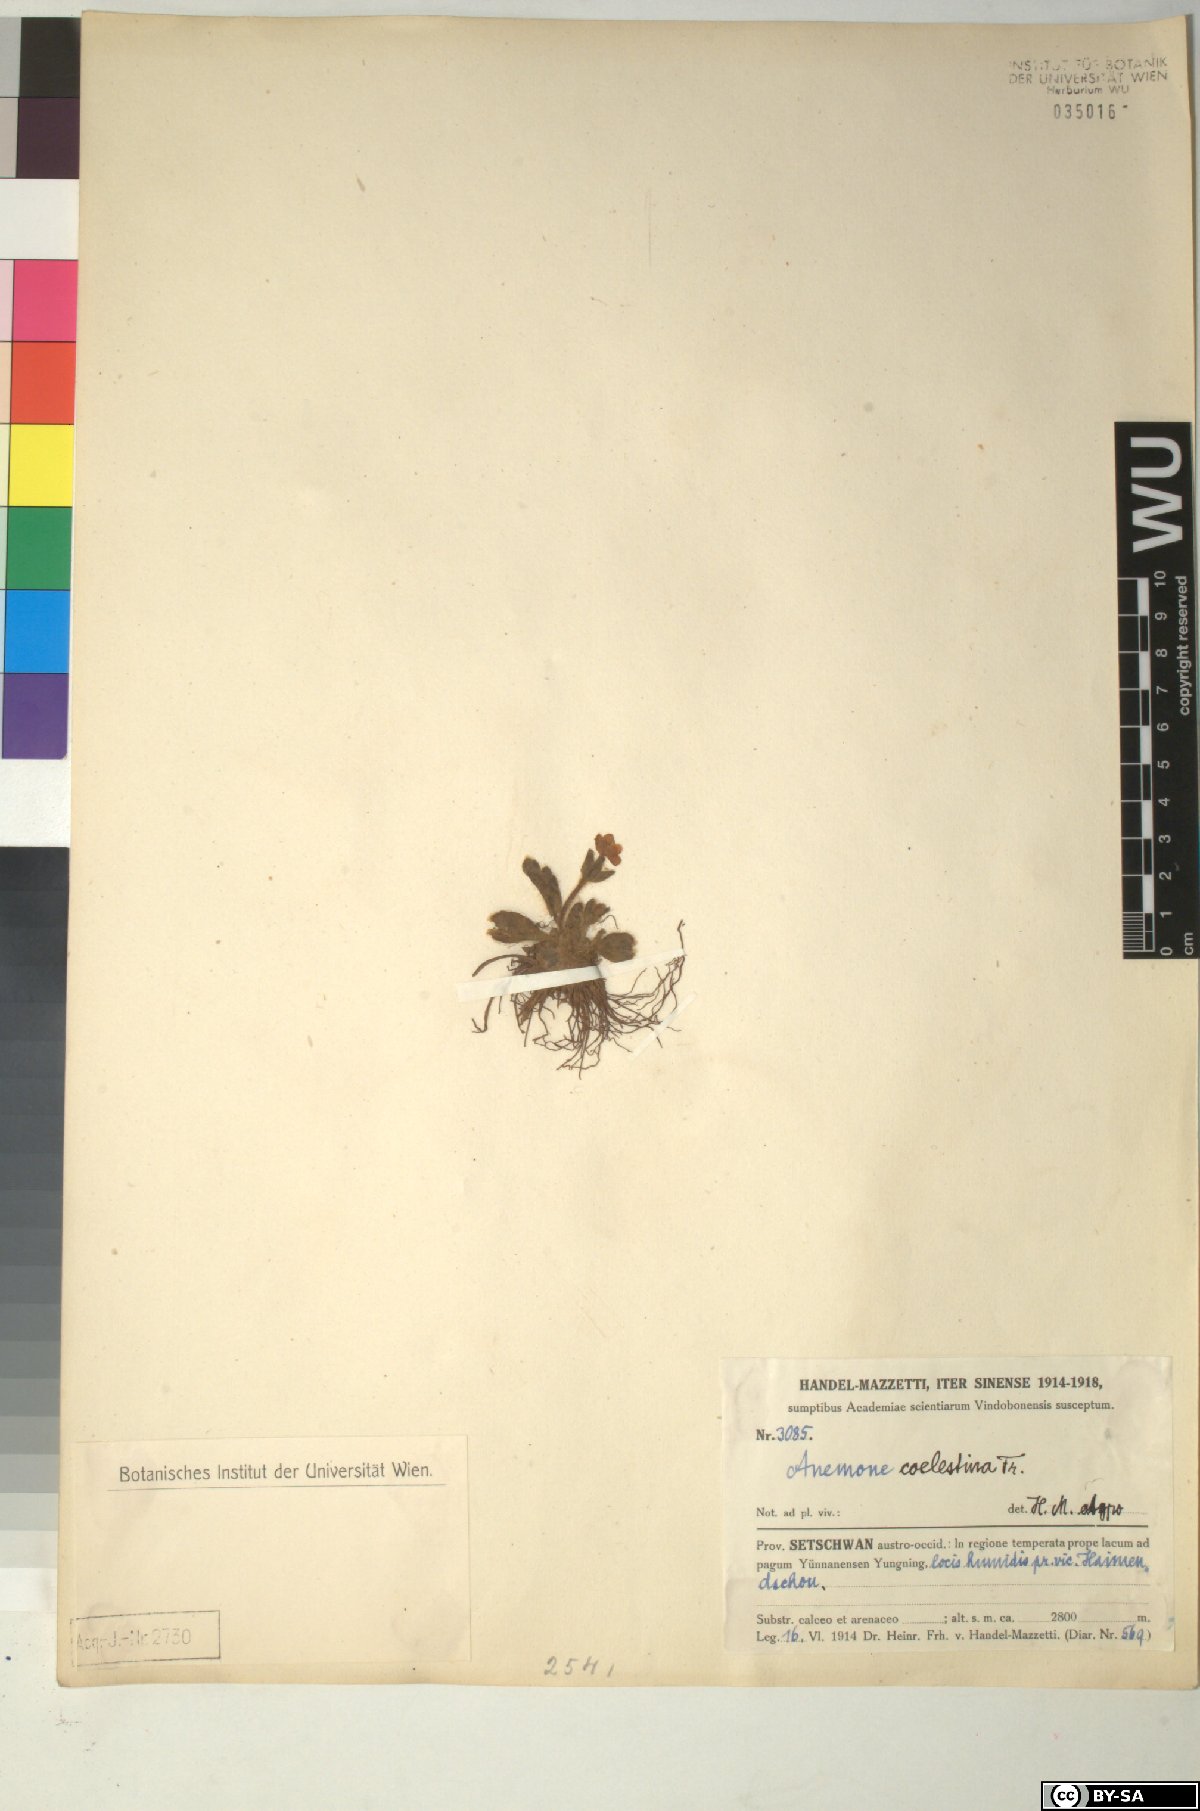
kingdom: Plantae
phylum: Tracheophyta
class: Magnoliopsida
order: Ranunculales
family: Ranunculaceae
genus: Anemonastrum
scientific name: Anemonastrum coelestinum
